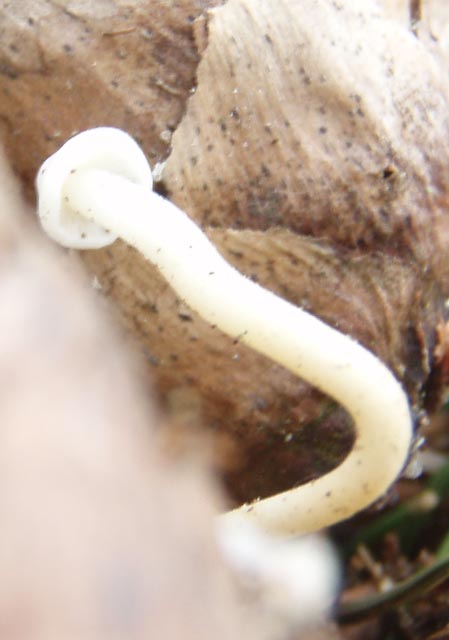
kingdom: Fungi
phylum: Basidiomycota
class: Agaricomycetes
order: Agaricales
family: Physalacriaceae
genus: Strobilurus
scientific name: Strobilurus esculentus
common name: gran-koglehat
